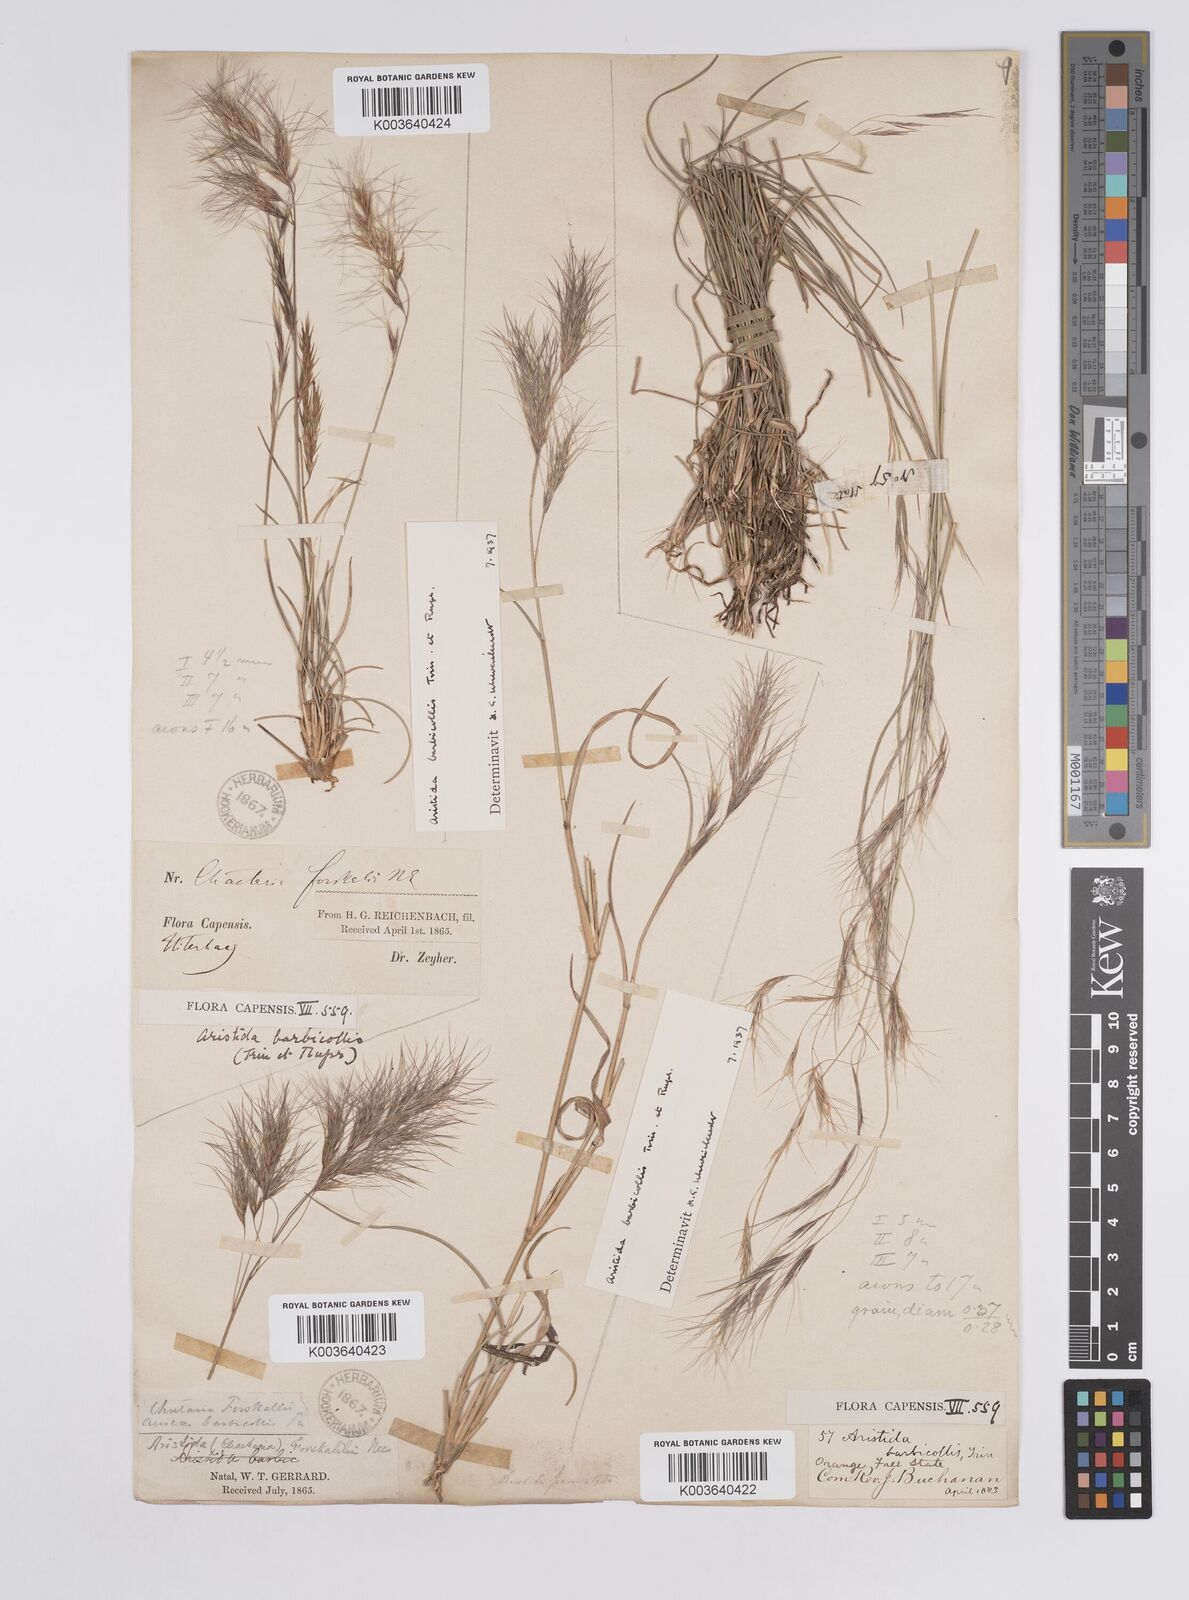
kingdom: Plantae
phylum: Tracheophyta
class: Liliopsida
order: Poales
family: Poaceae
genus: Aristida
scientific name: Aristida barbicollis
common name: Spreading prickle grass
